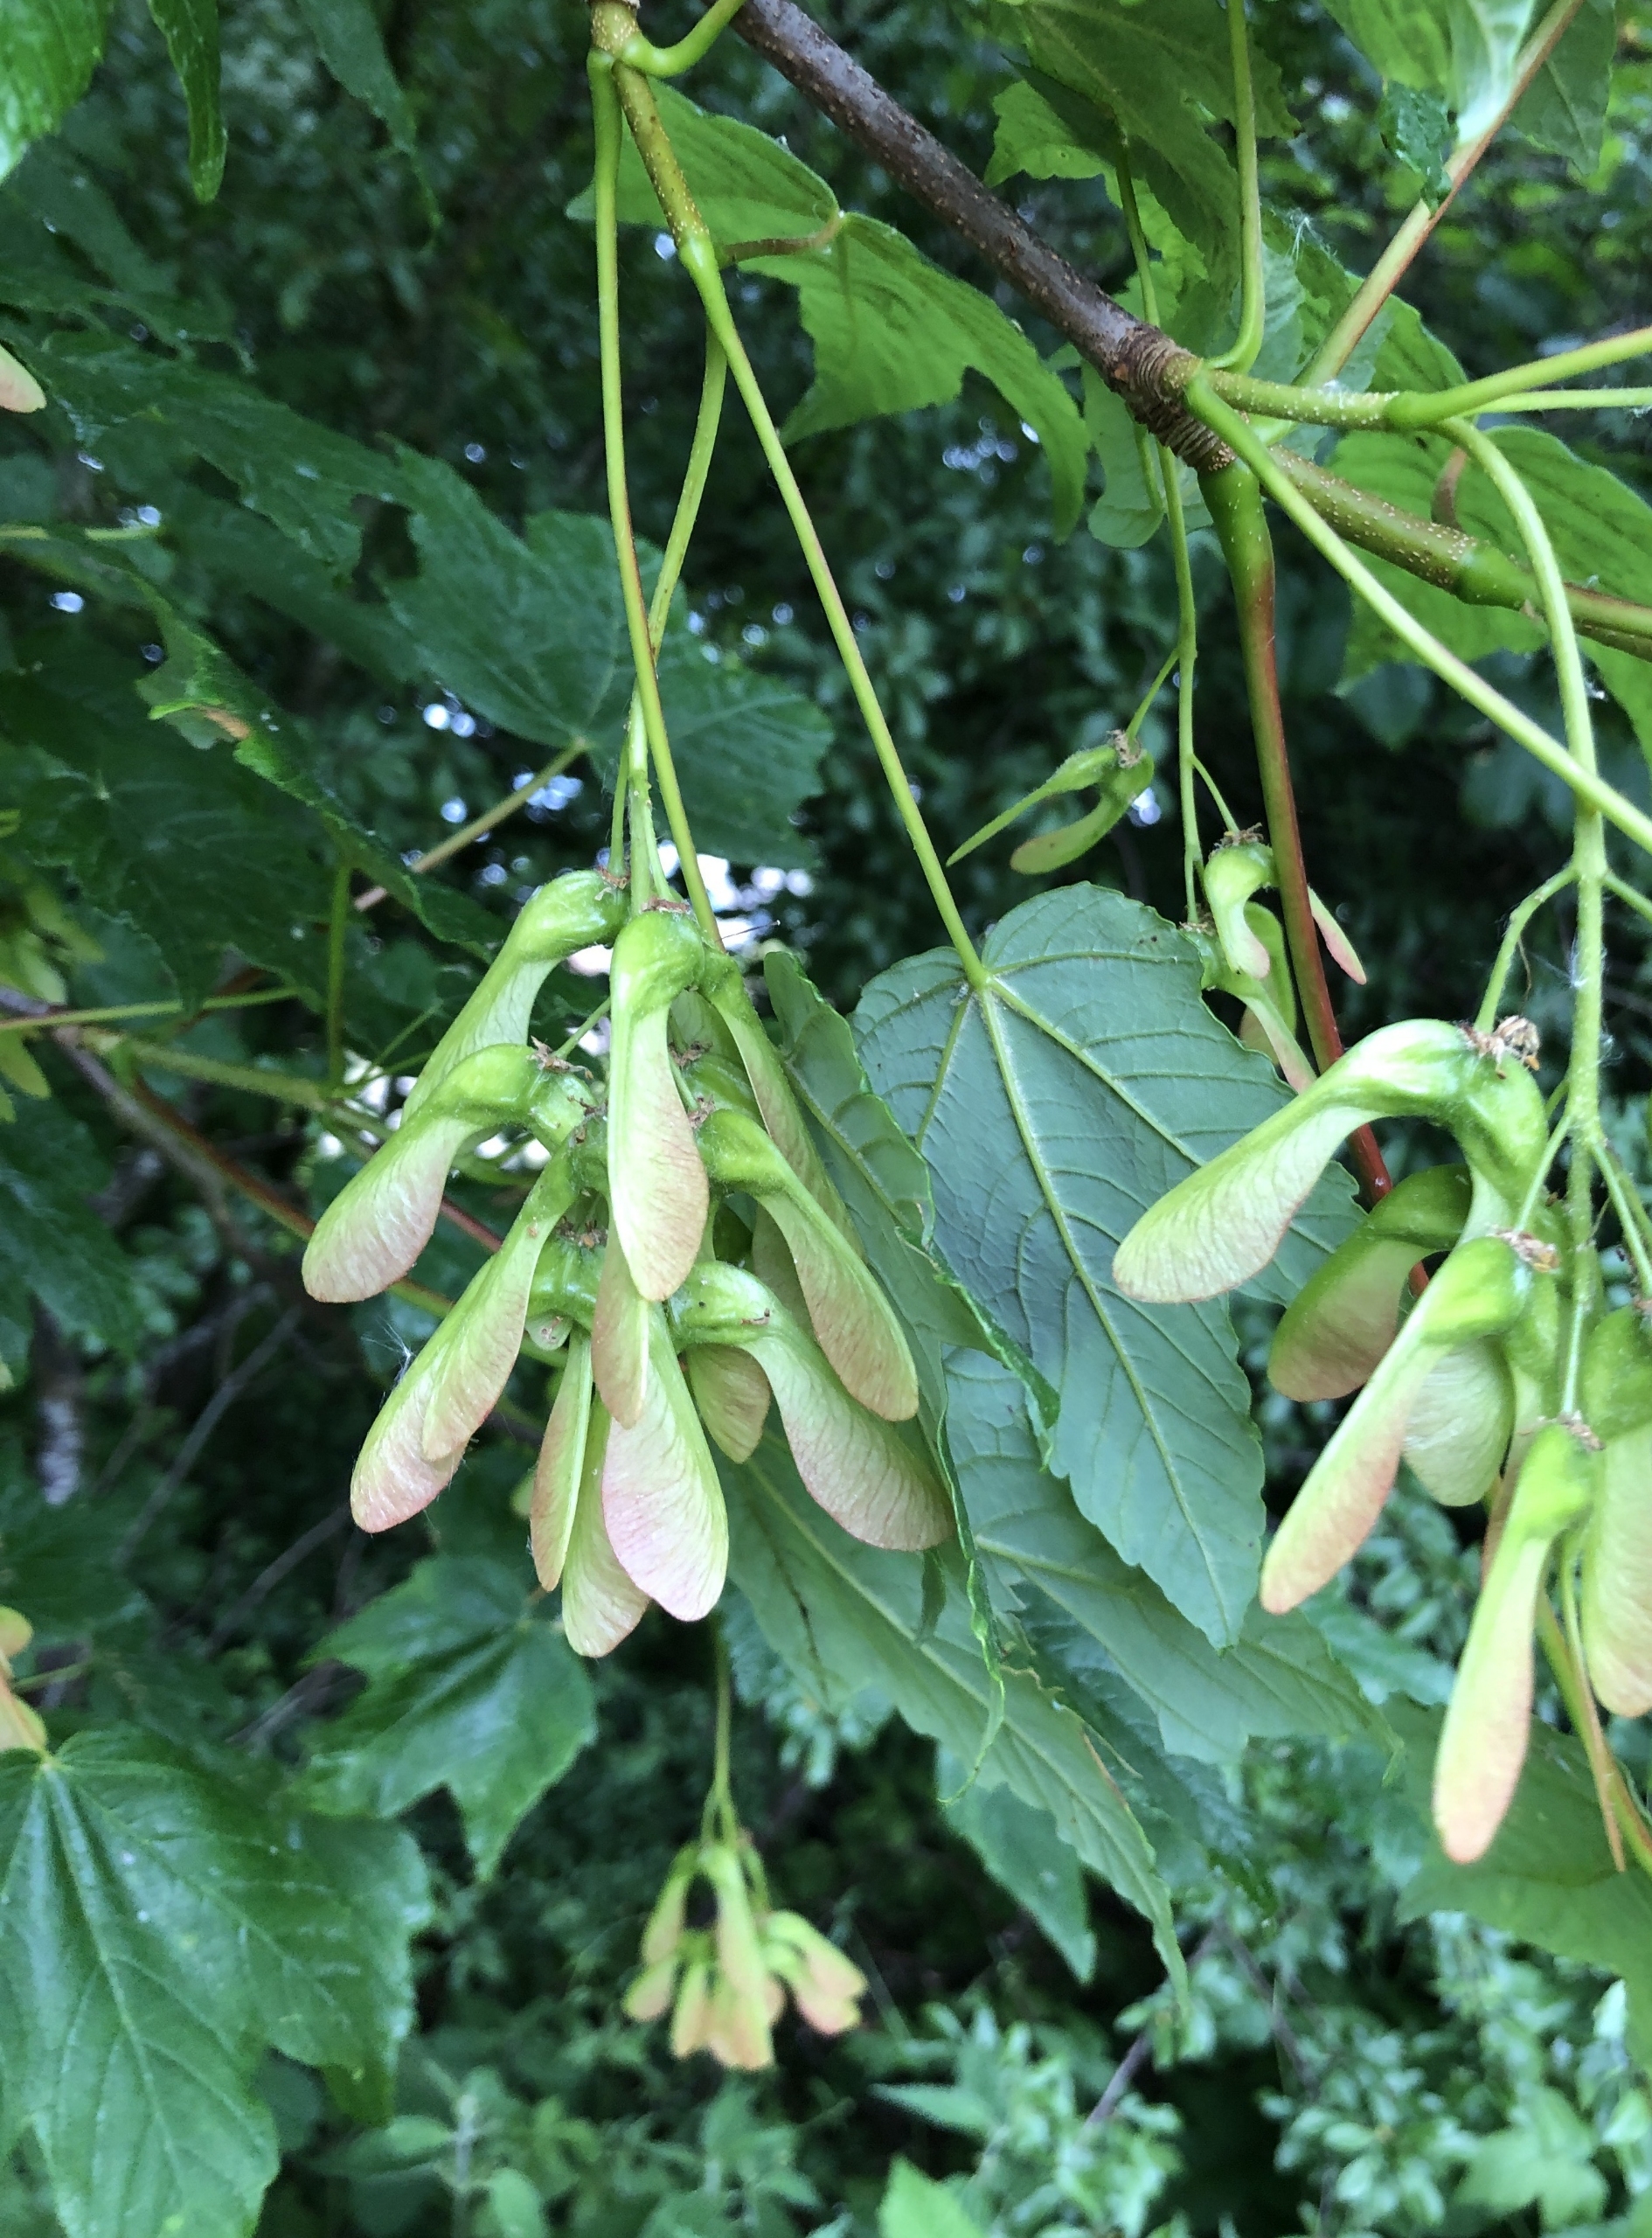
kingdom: Plantae
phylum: Tracheophyta
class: Magnoliopsida
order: Sapindales
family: Sapindaceae
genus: Acer
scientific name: Acer pseudoplatanus
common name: Ahorn
